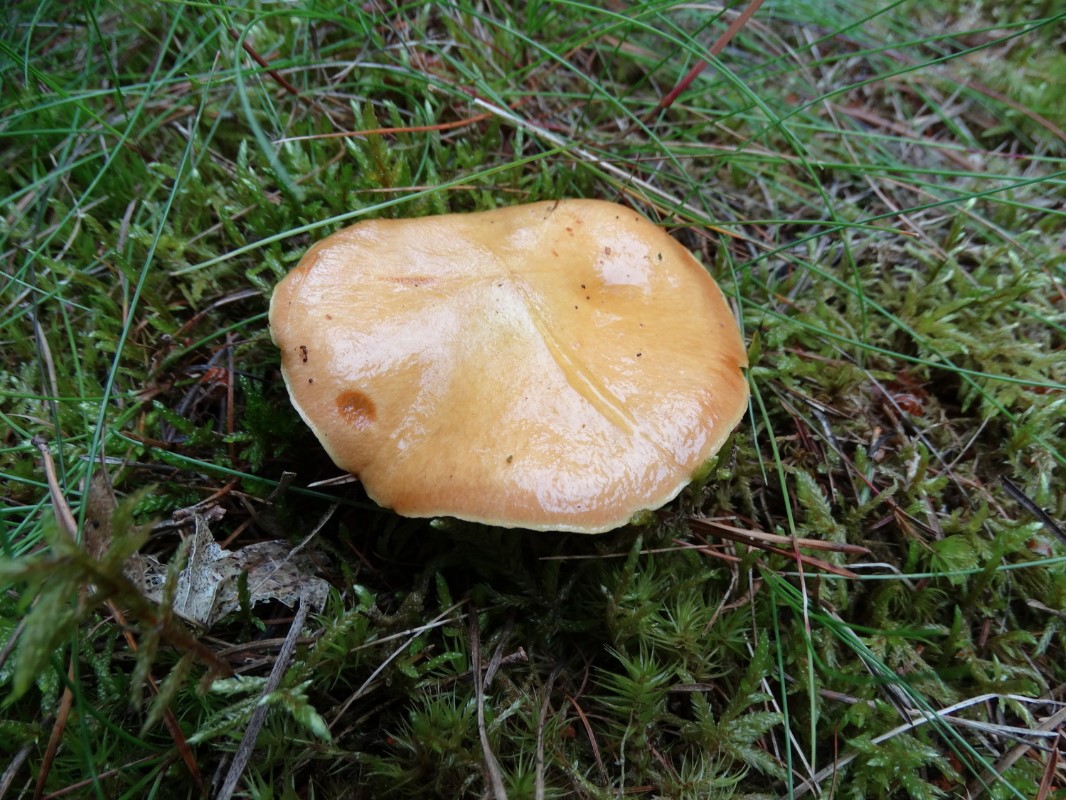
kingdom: Fungi
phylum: Basidiomycota
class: Agaricomycetes
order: Boletales
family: Suillaceae
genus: Suillus
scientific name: Suillus grevillei
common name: lærke-slimrørhat
